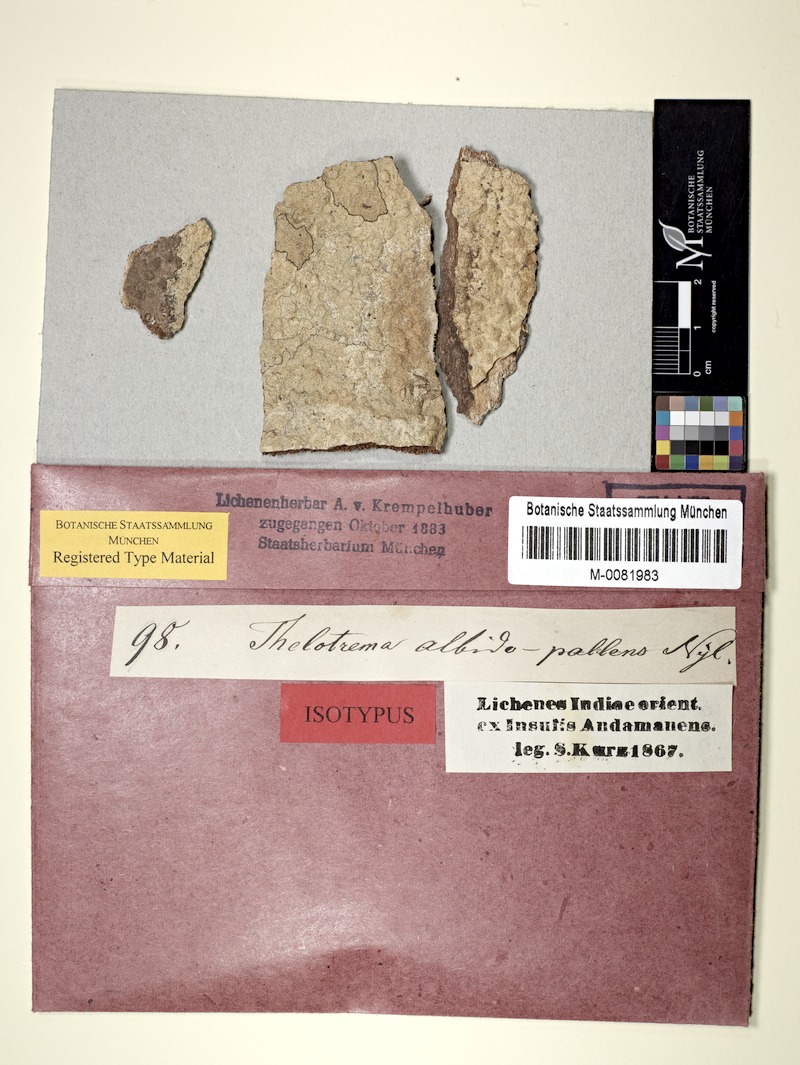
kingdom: Fungi
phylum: Ascomycota
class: Lecanoromycetes
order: Ostropales
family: Graphidaceae
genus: Thelotrema
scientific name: Thelotrema albidopallens
